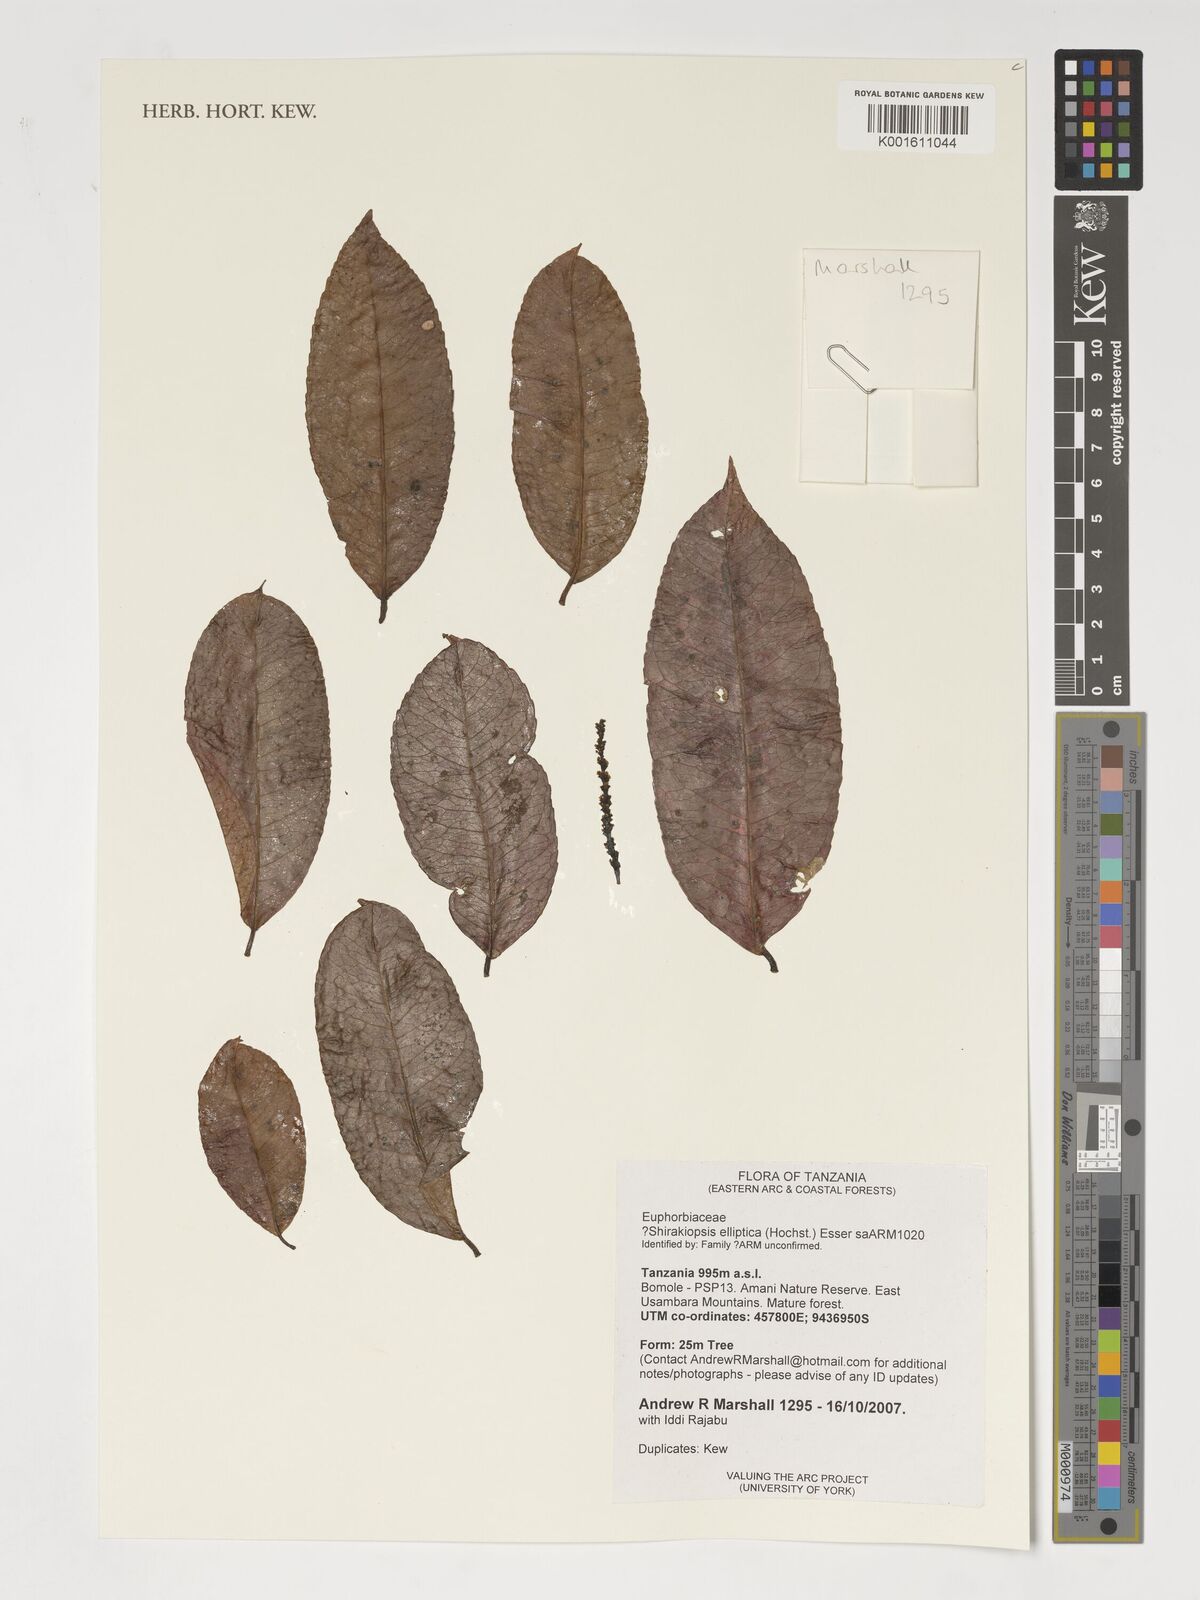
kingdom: Plantae
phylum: Tracheophyta
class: Magnoliopsida
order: Malpighiales
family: Euphorbiaceae
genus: Shirakiopsis
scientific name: Shirakiopsis elliptica
